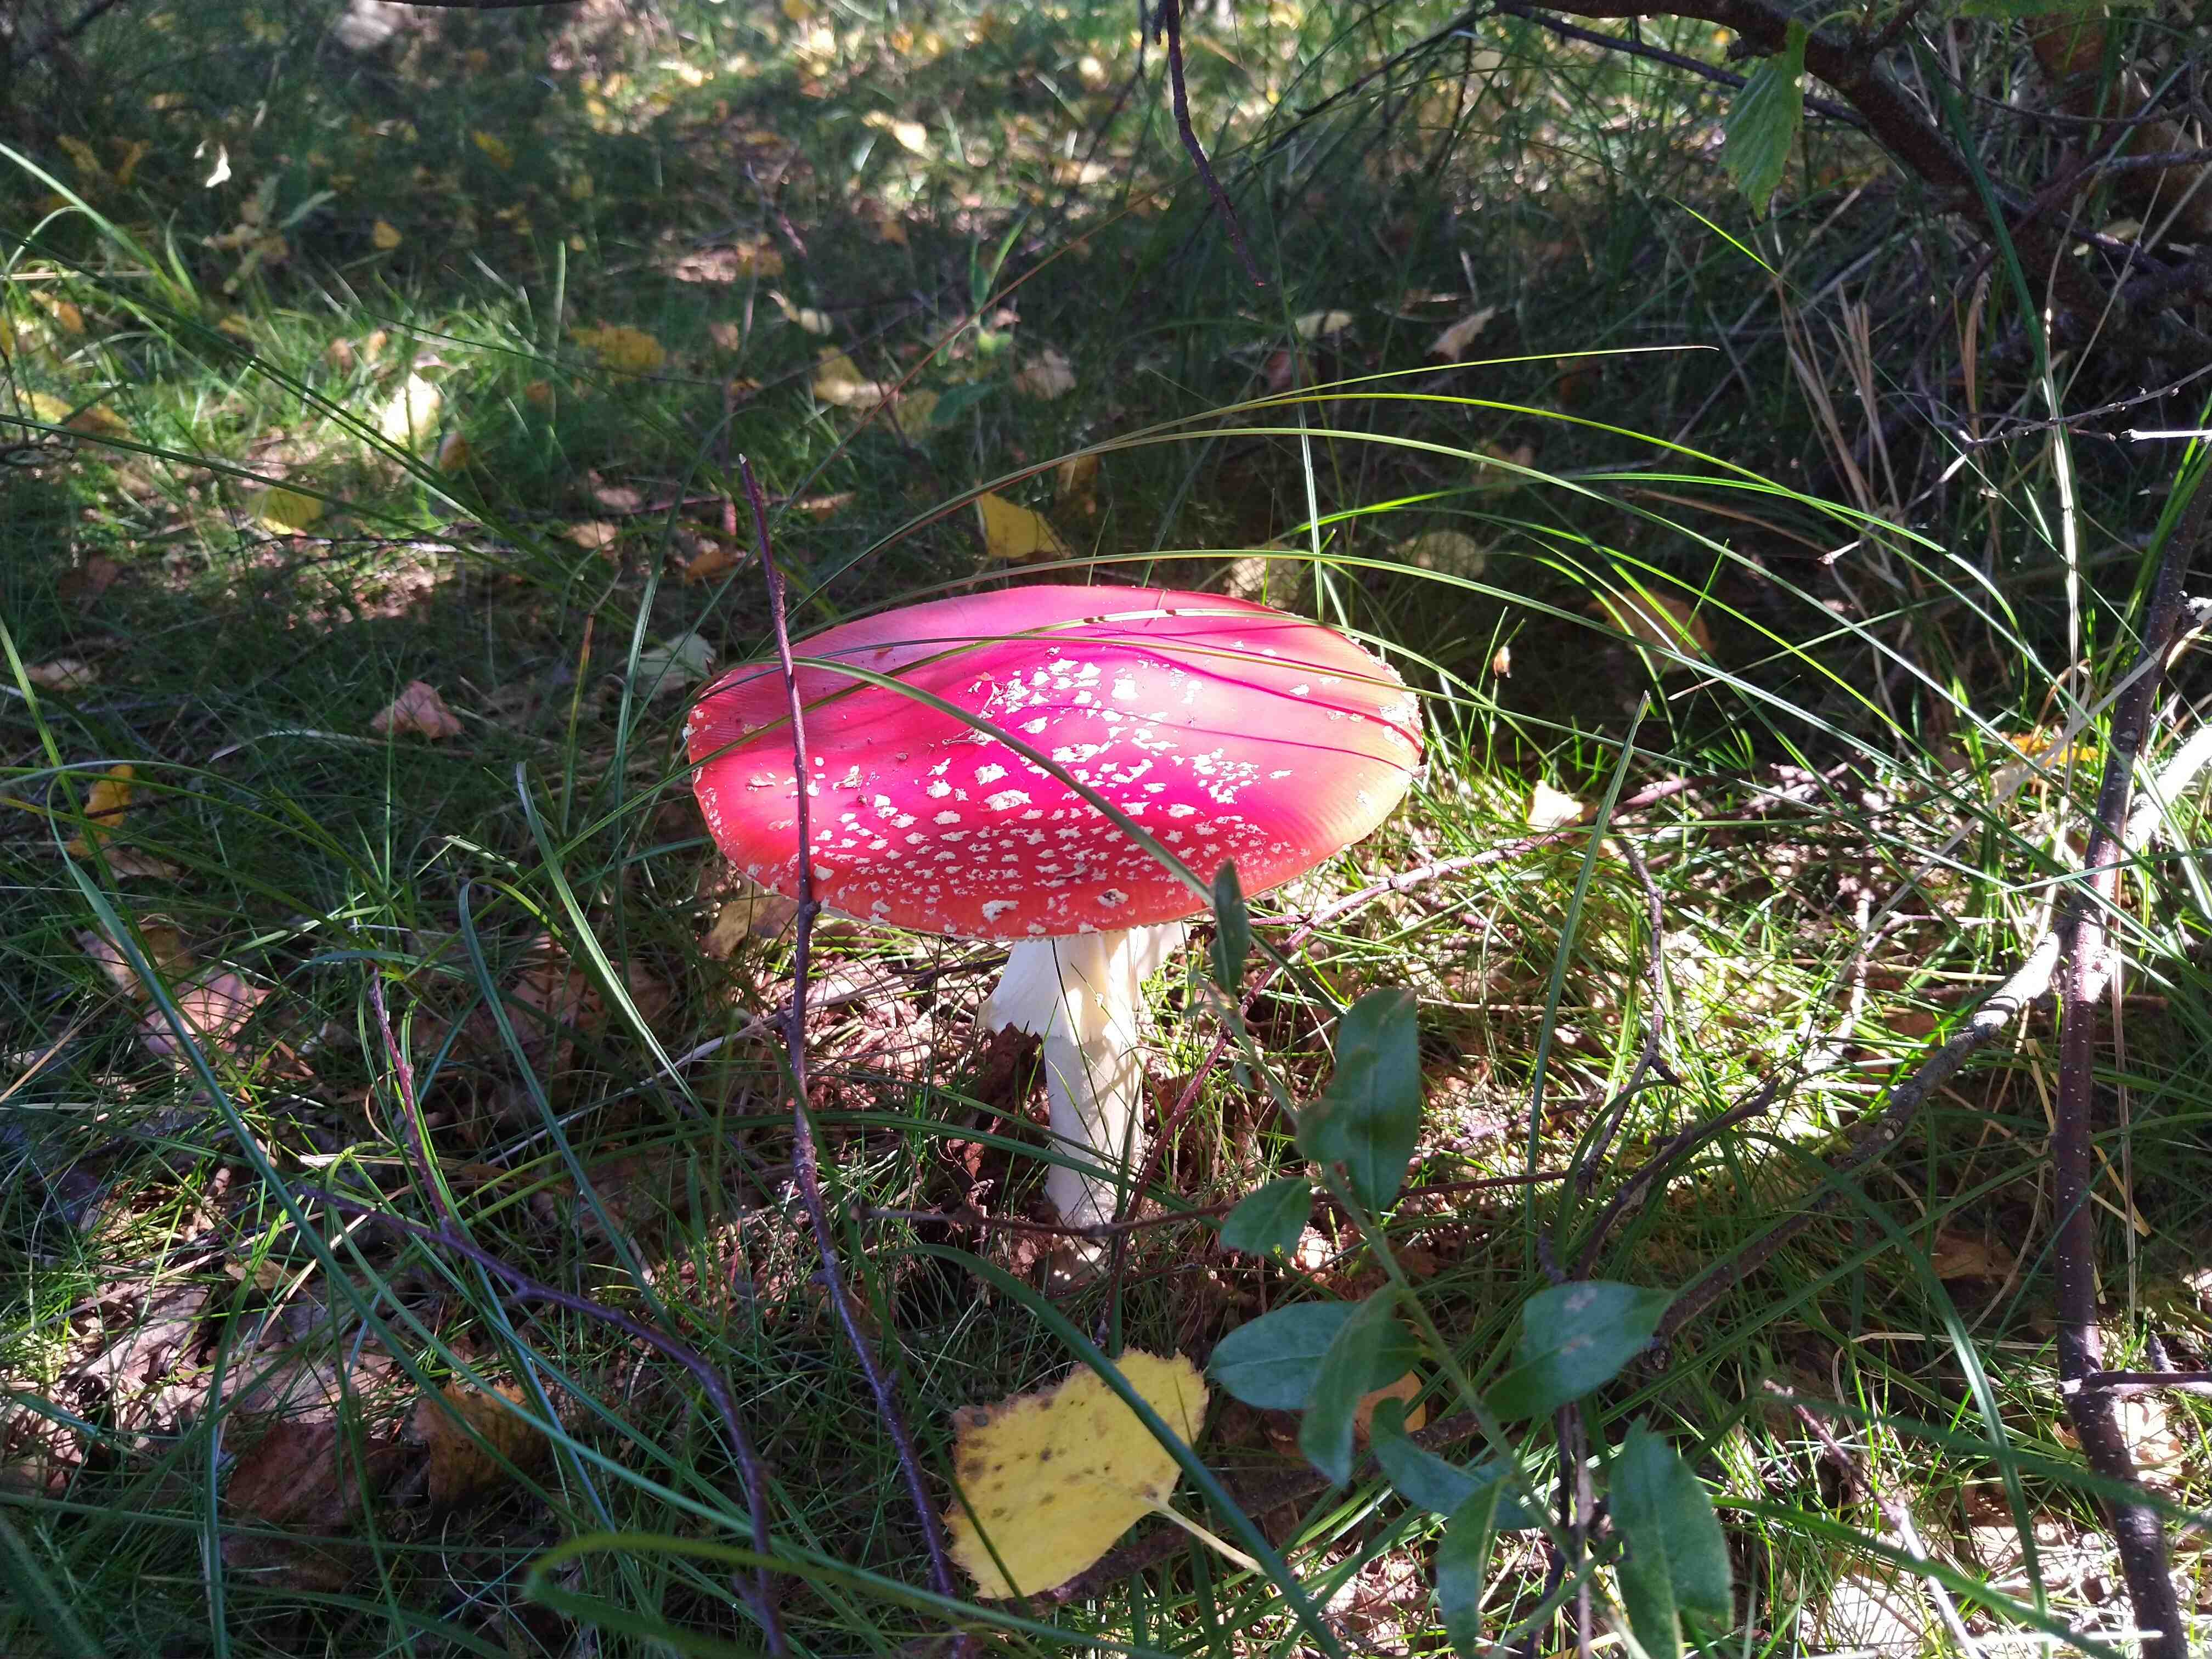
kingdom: Fungi
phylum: Basidiomycota
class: Agaricomycetes
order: Agaricales
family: Amanitaceae
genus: Amanita
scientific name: Amanita muscaria
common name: rød fluesvamp
